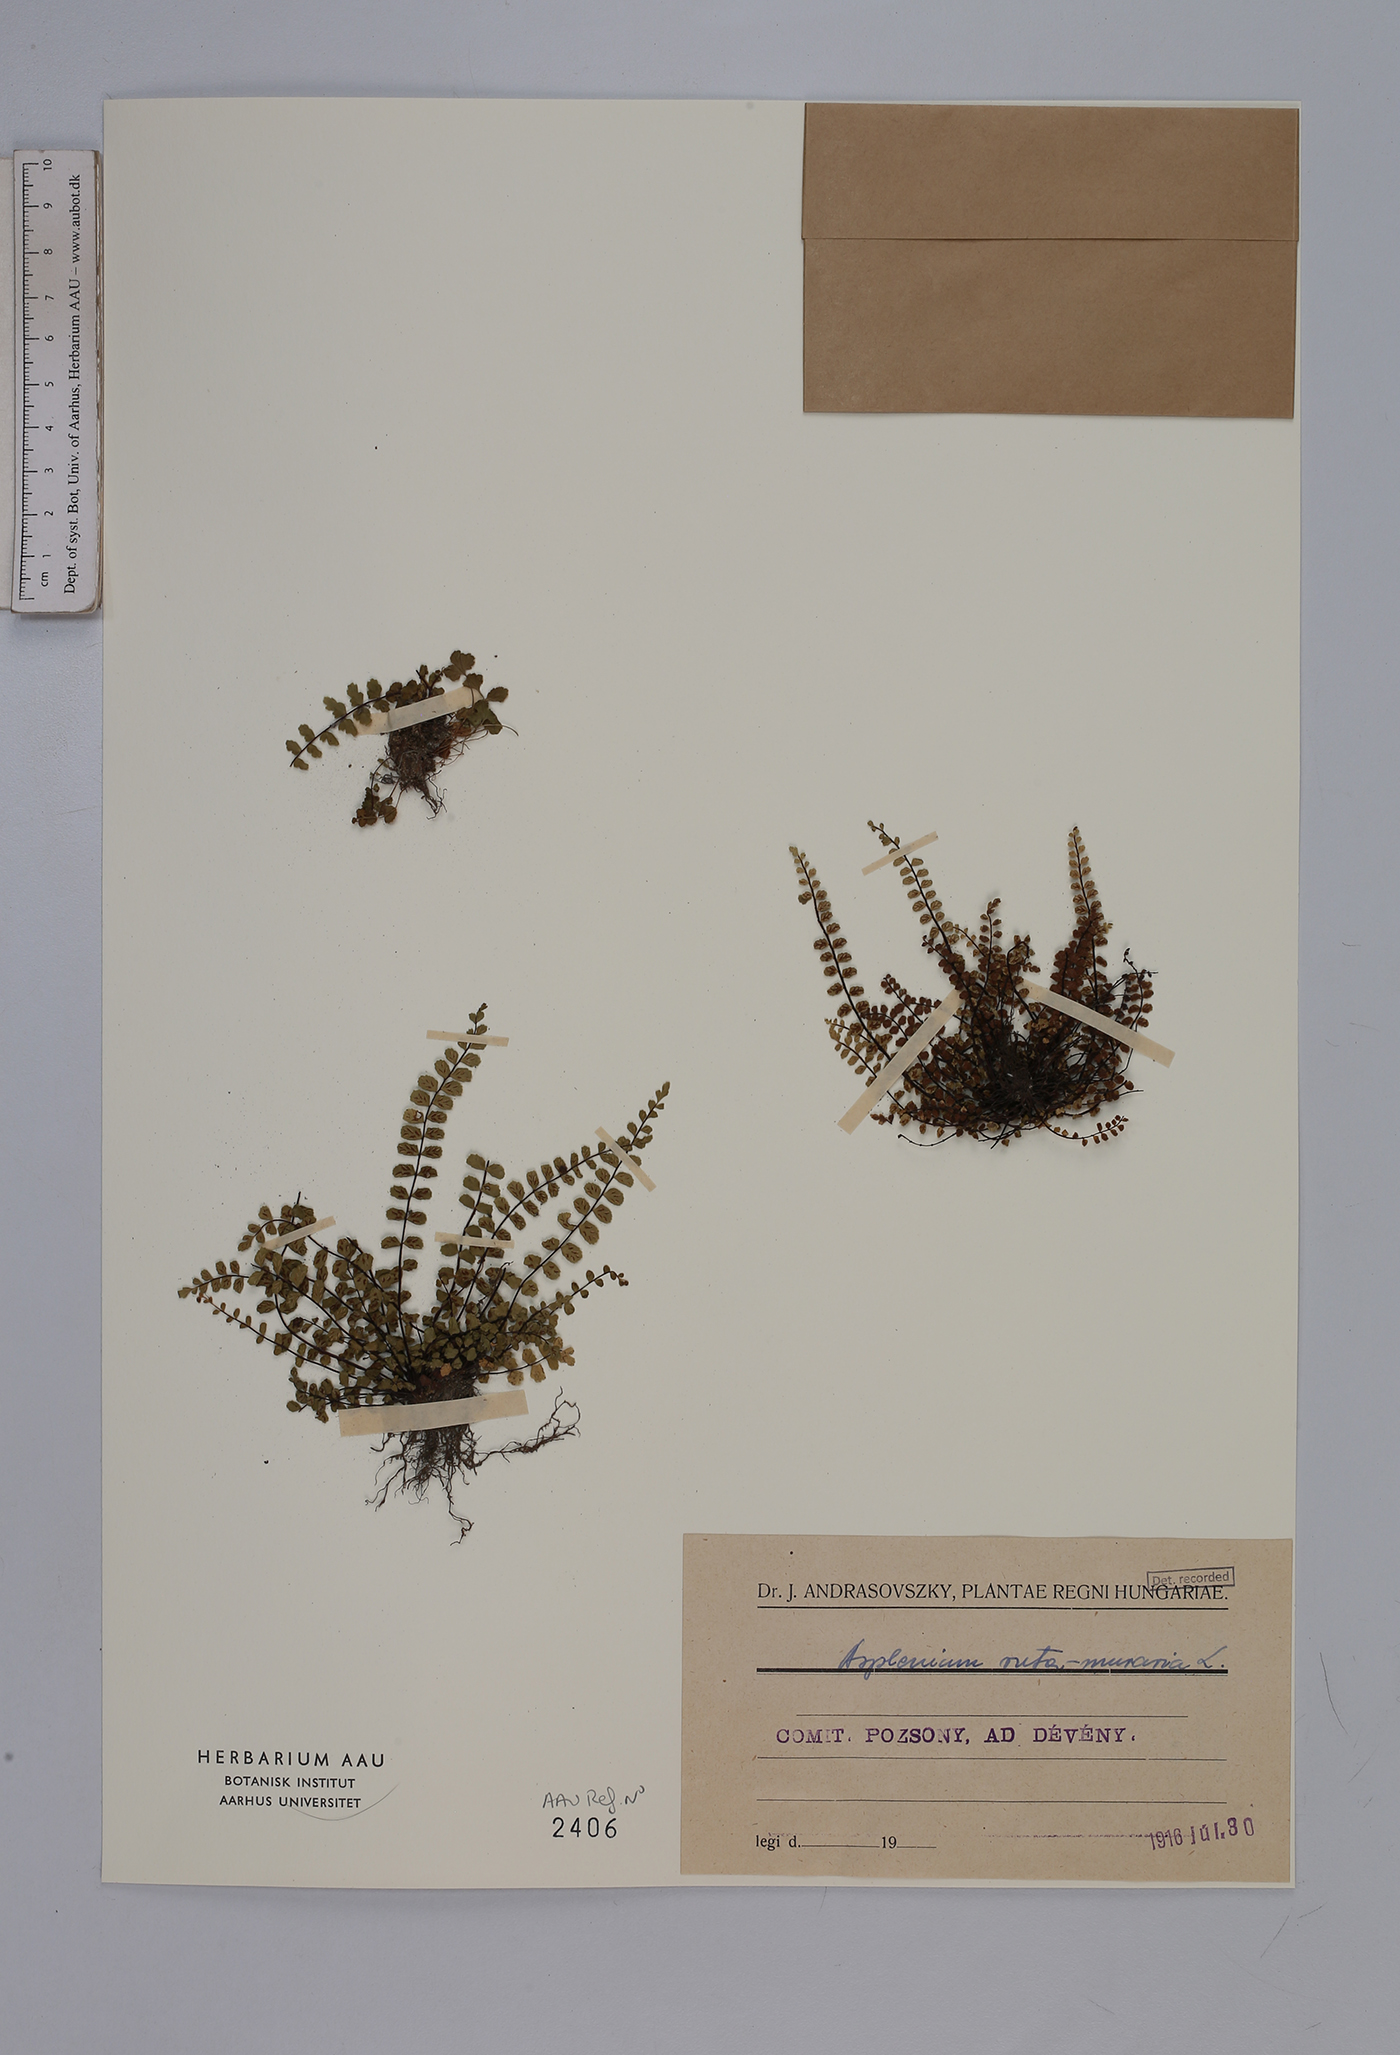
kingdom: Plantae
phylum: Tracheophyta
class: Polypodiopsida
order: Polypodiales
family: Aspleniaceae
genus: Asplenium
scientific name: Asplenium trichomanes
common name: Maidenhair spleenwort
